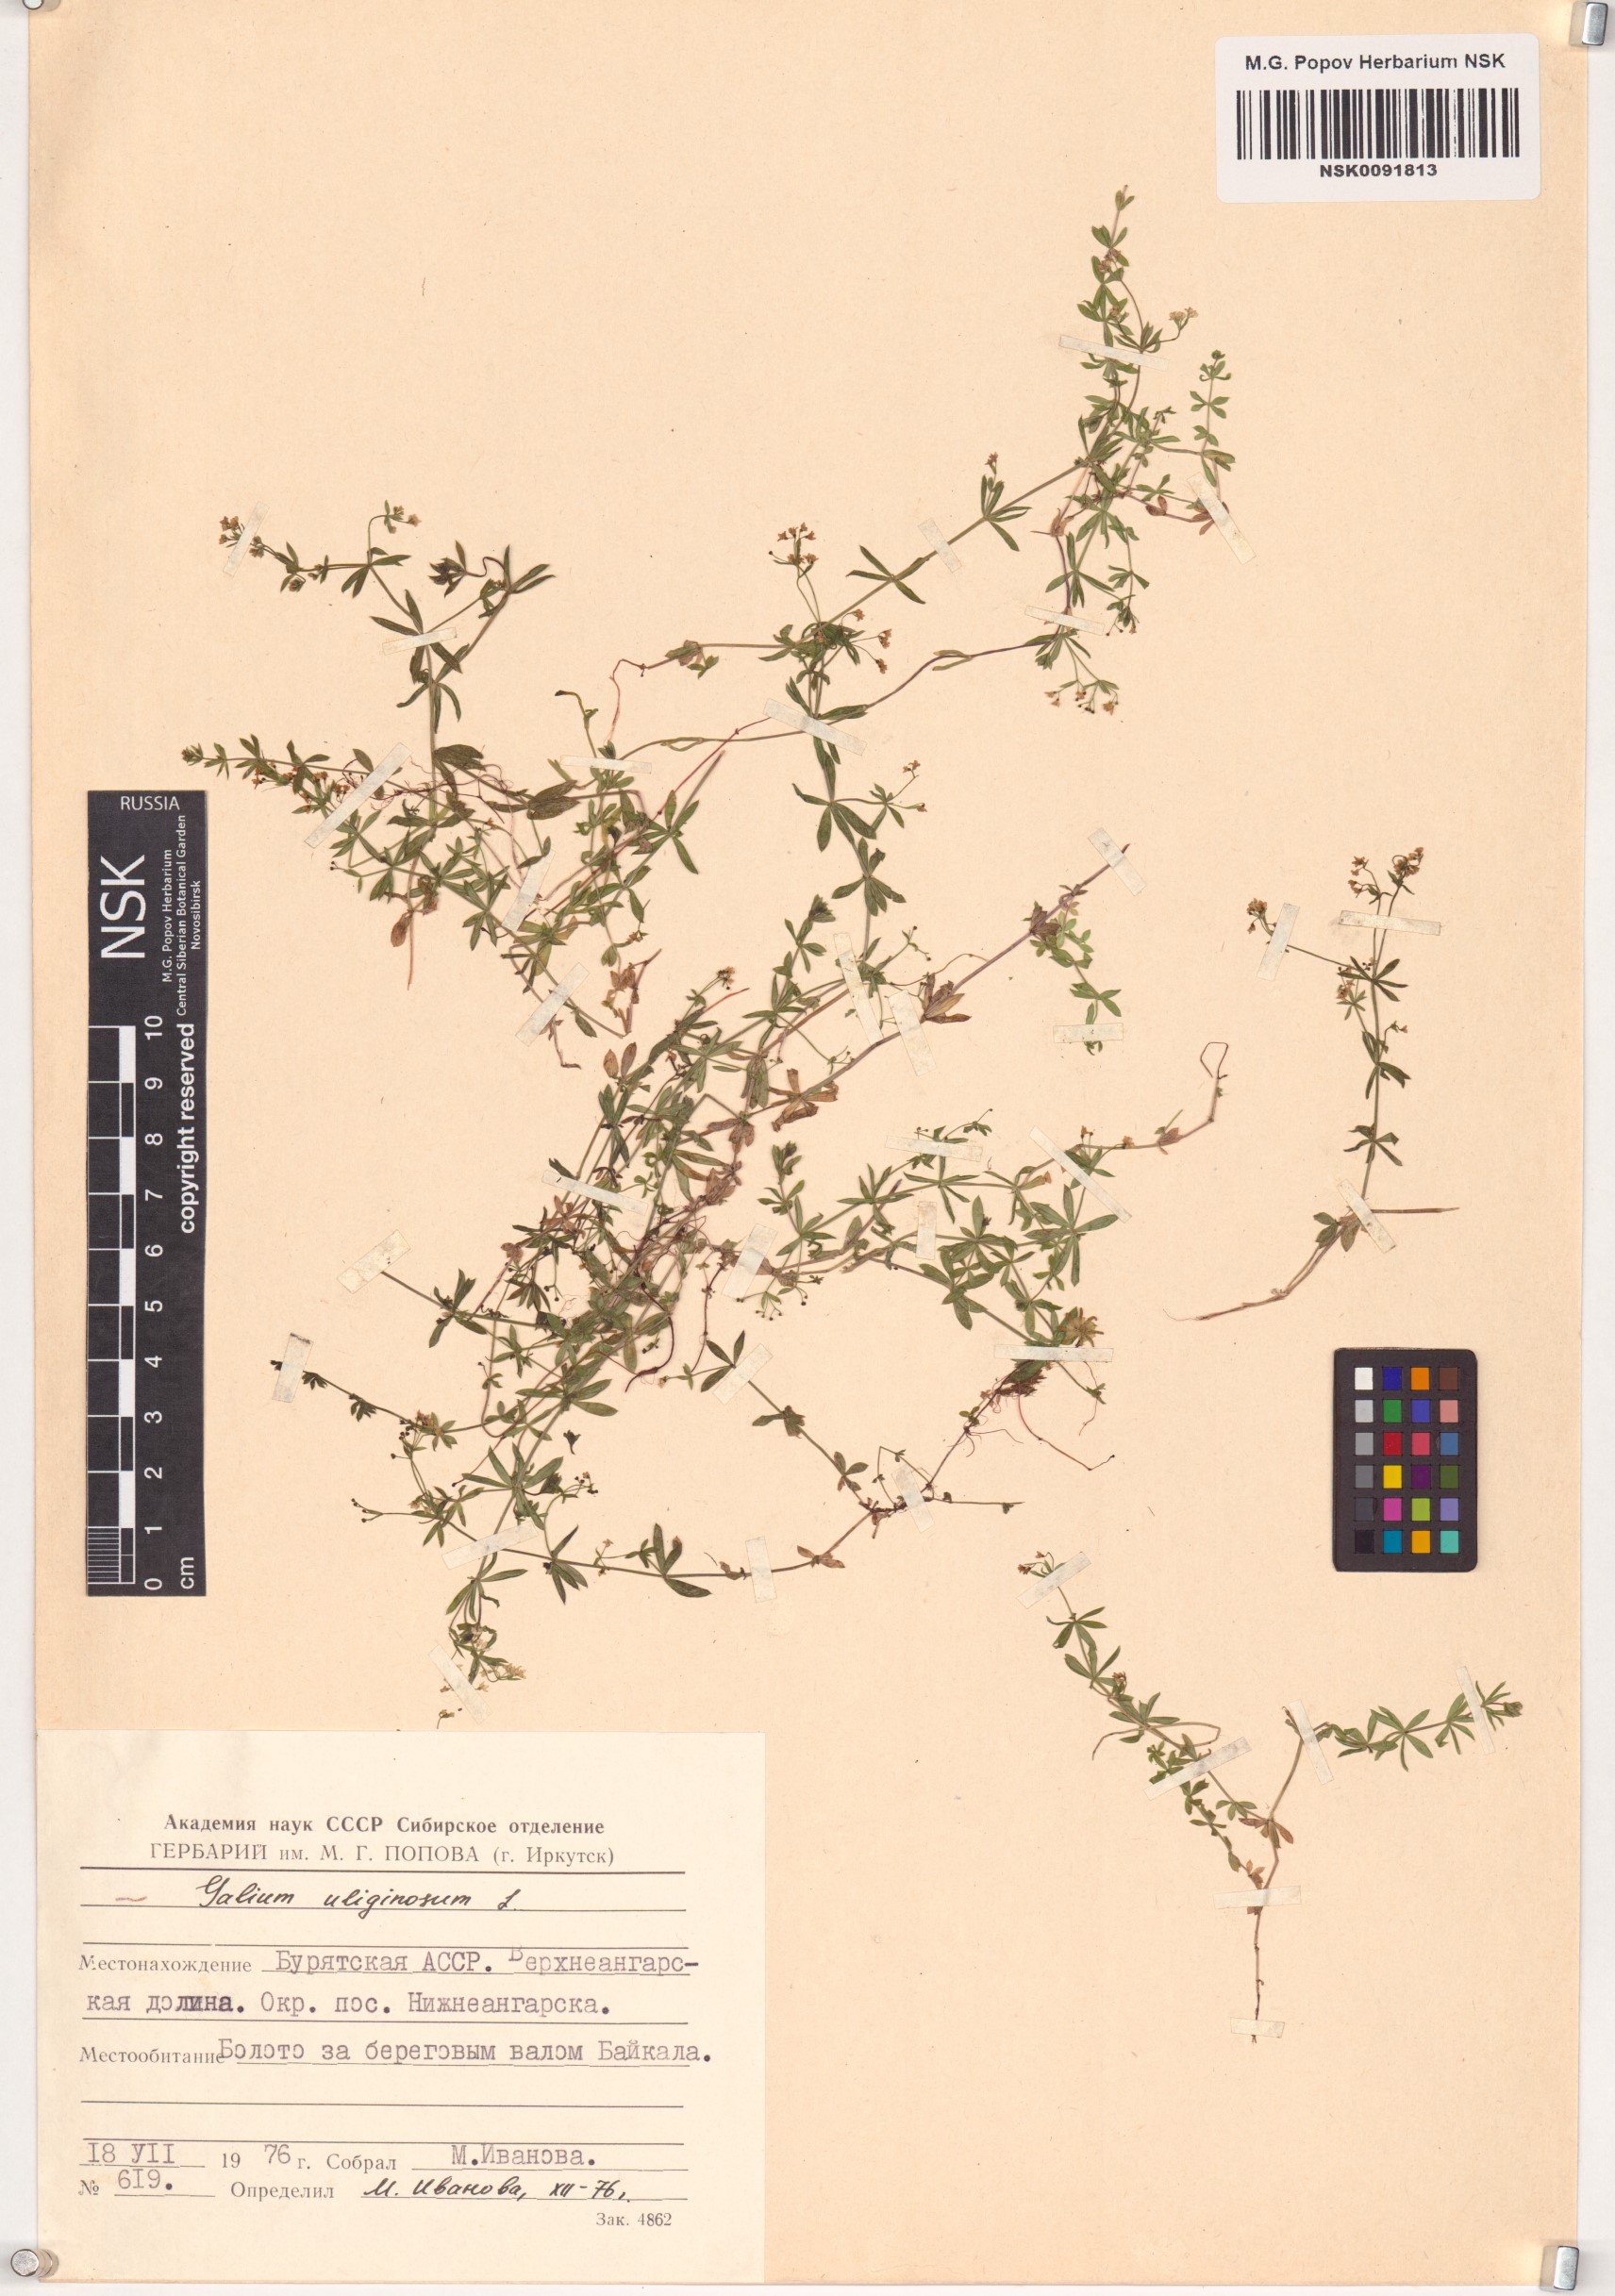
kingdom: Plantae
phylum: Tracheophyta
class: Magnoliopsida
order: Gentianales
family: Rubiaceae
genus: Galium
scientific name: Galium uliginosum
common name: Fen bedstraw
